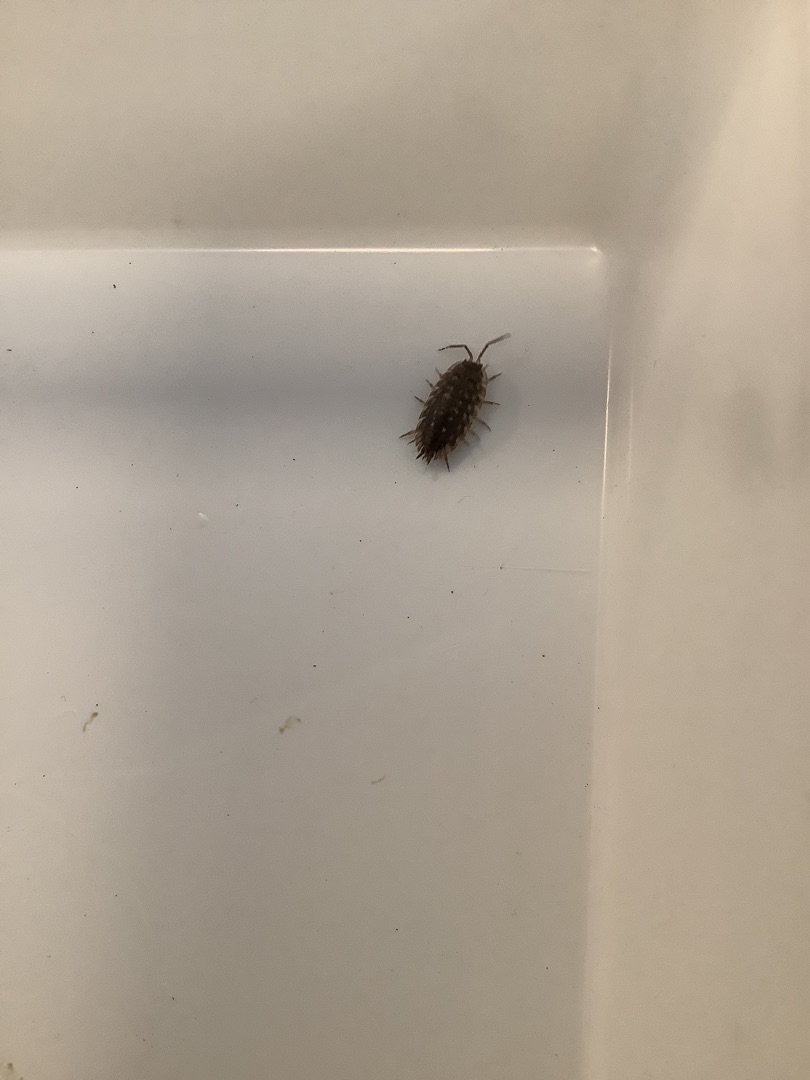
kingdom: Animalia
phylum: Arthropoda
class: Malacostraca
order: Isopoda
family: Oniscidae
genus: Oniscus
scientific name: Oniscus asellus
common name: Glat bænkebider
